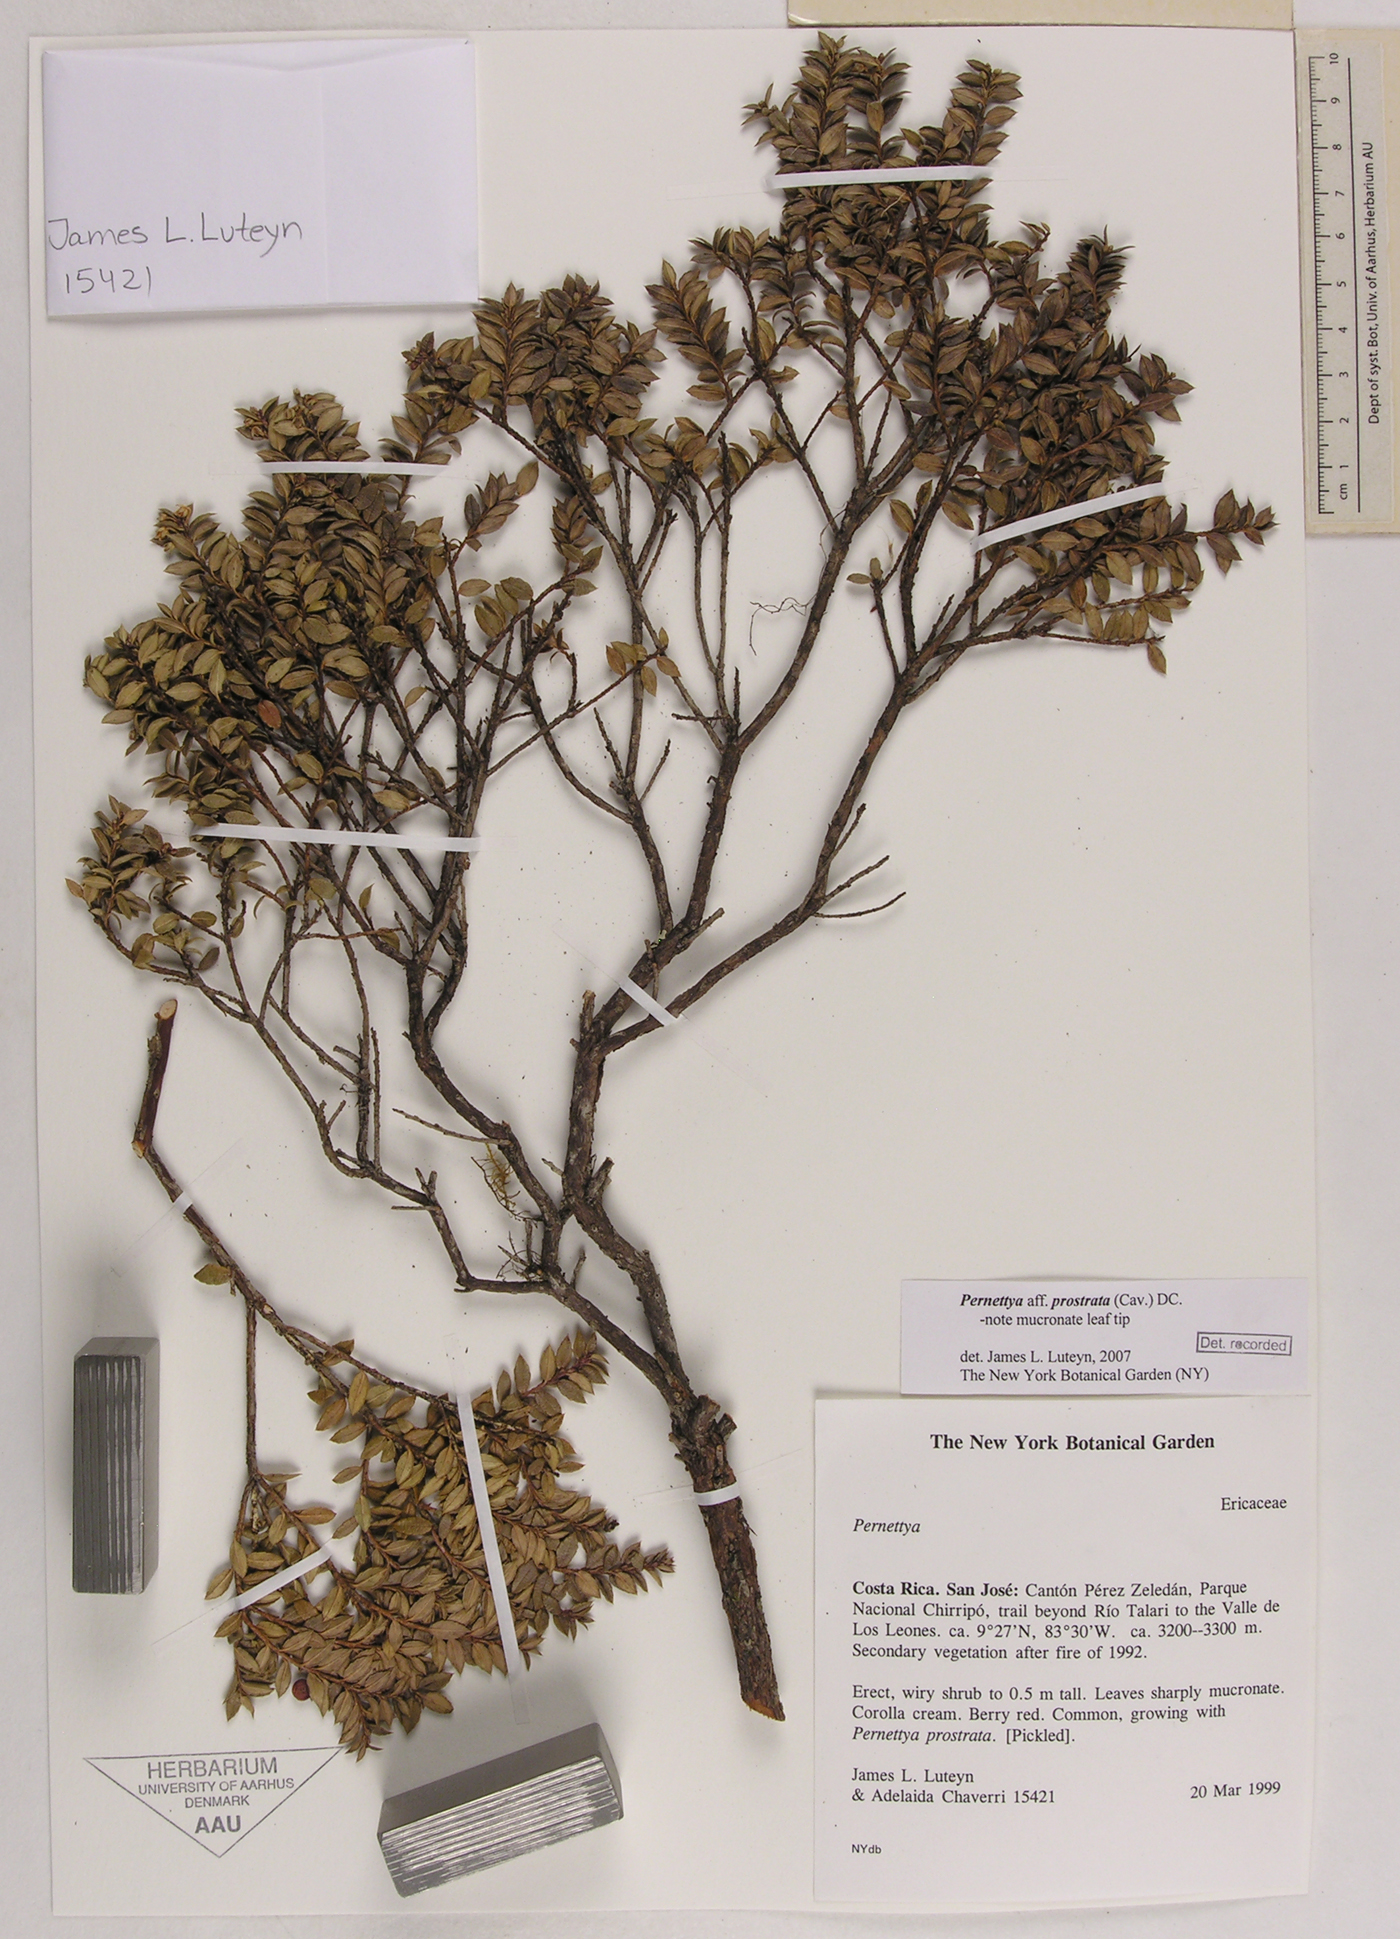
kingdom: Plantae
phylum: Tracheophyta
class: Magnoliopsida
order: Ericales
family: Ericaceae
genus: Gaultheria
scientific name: Gaultheria myrsinoides
